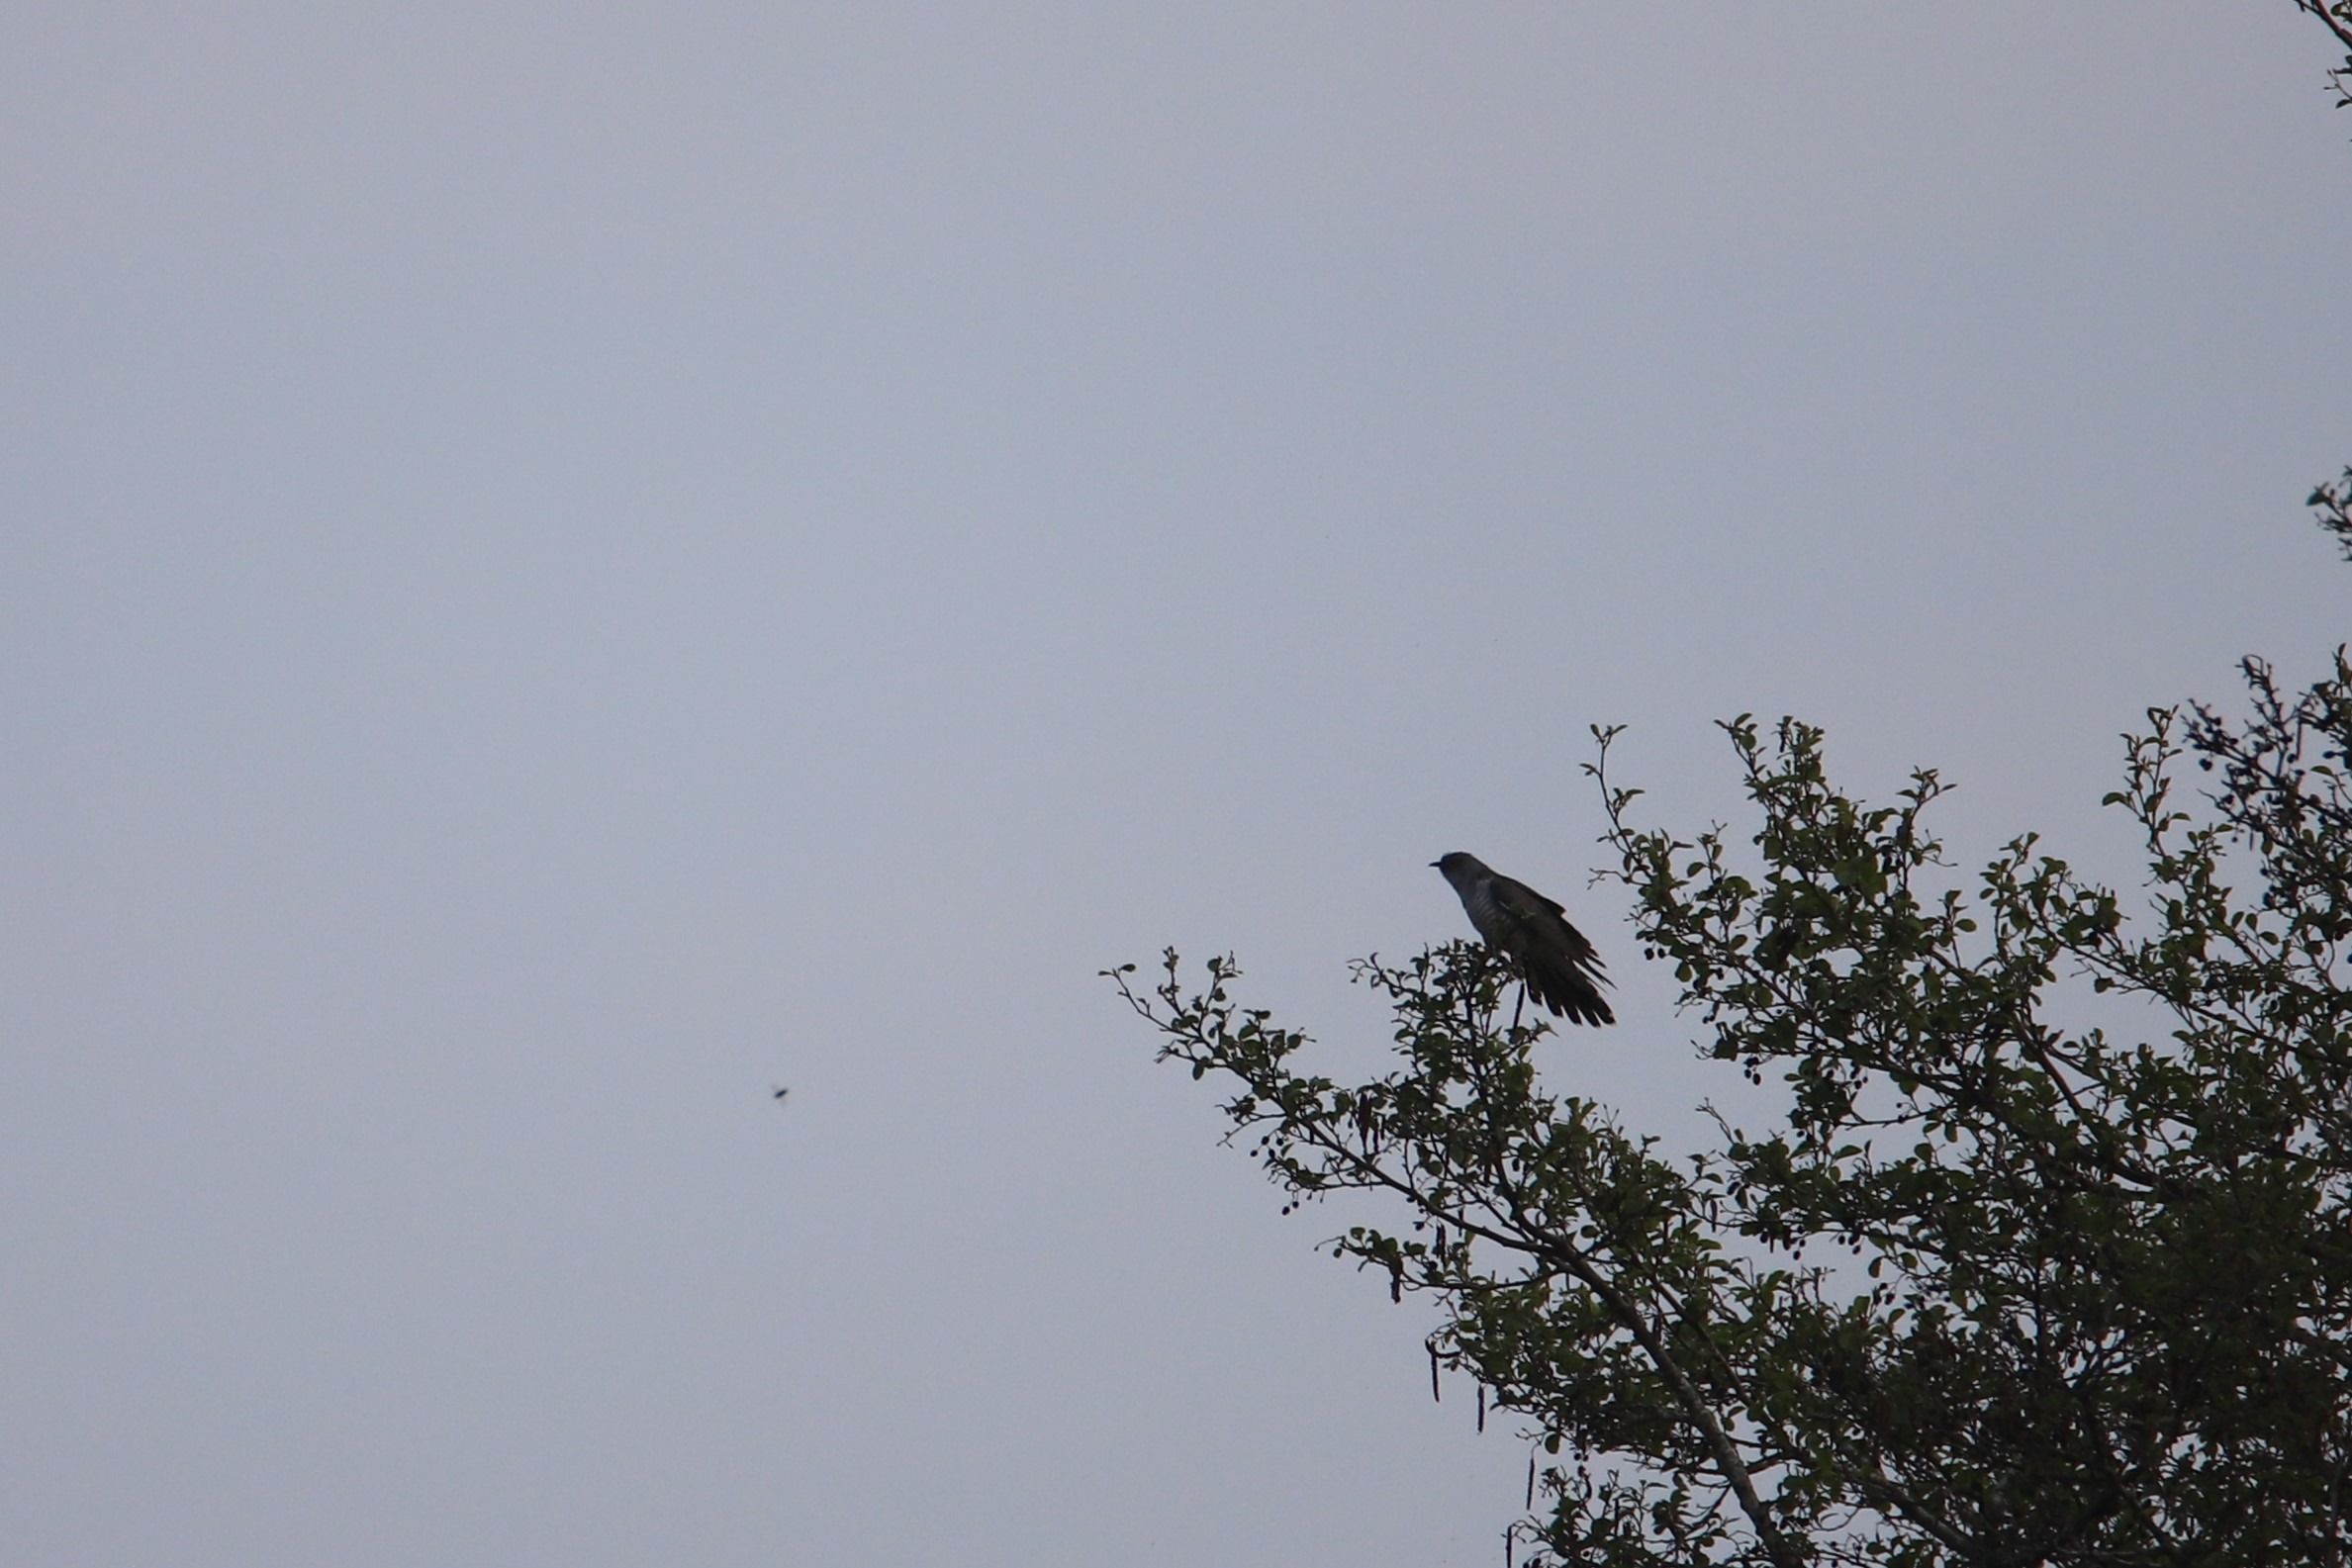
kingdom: Animalia
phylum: Chordata
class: Aves
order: Cuculiformes
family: Cuculidae
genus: Cuculus
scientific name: Cuculus canorus
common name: Gøg
